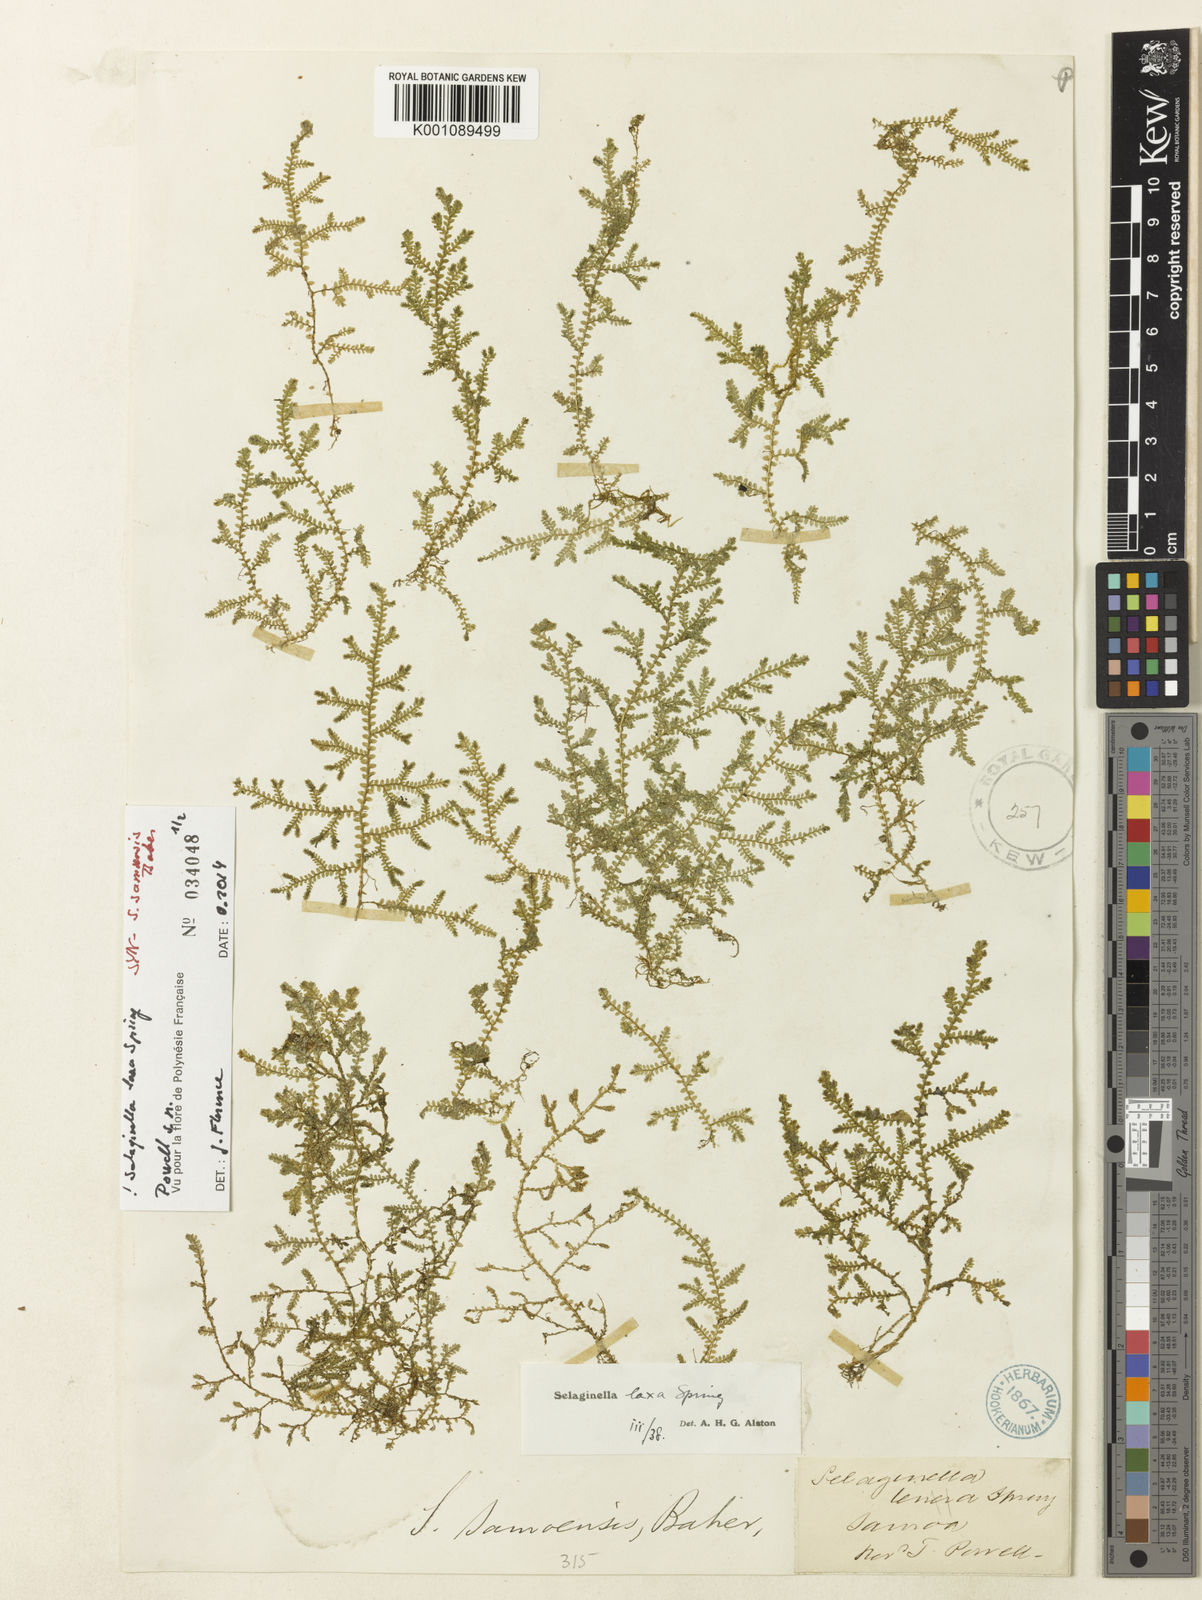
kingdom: Plantae
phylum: Tracheophyta
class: Lycopodiopsida
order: Selaginellales
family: Selaginellaceae
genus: Selaginella
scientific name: Selaginella laxa
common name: Lax spikemoss
